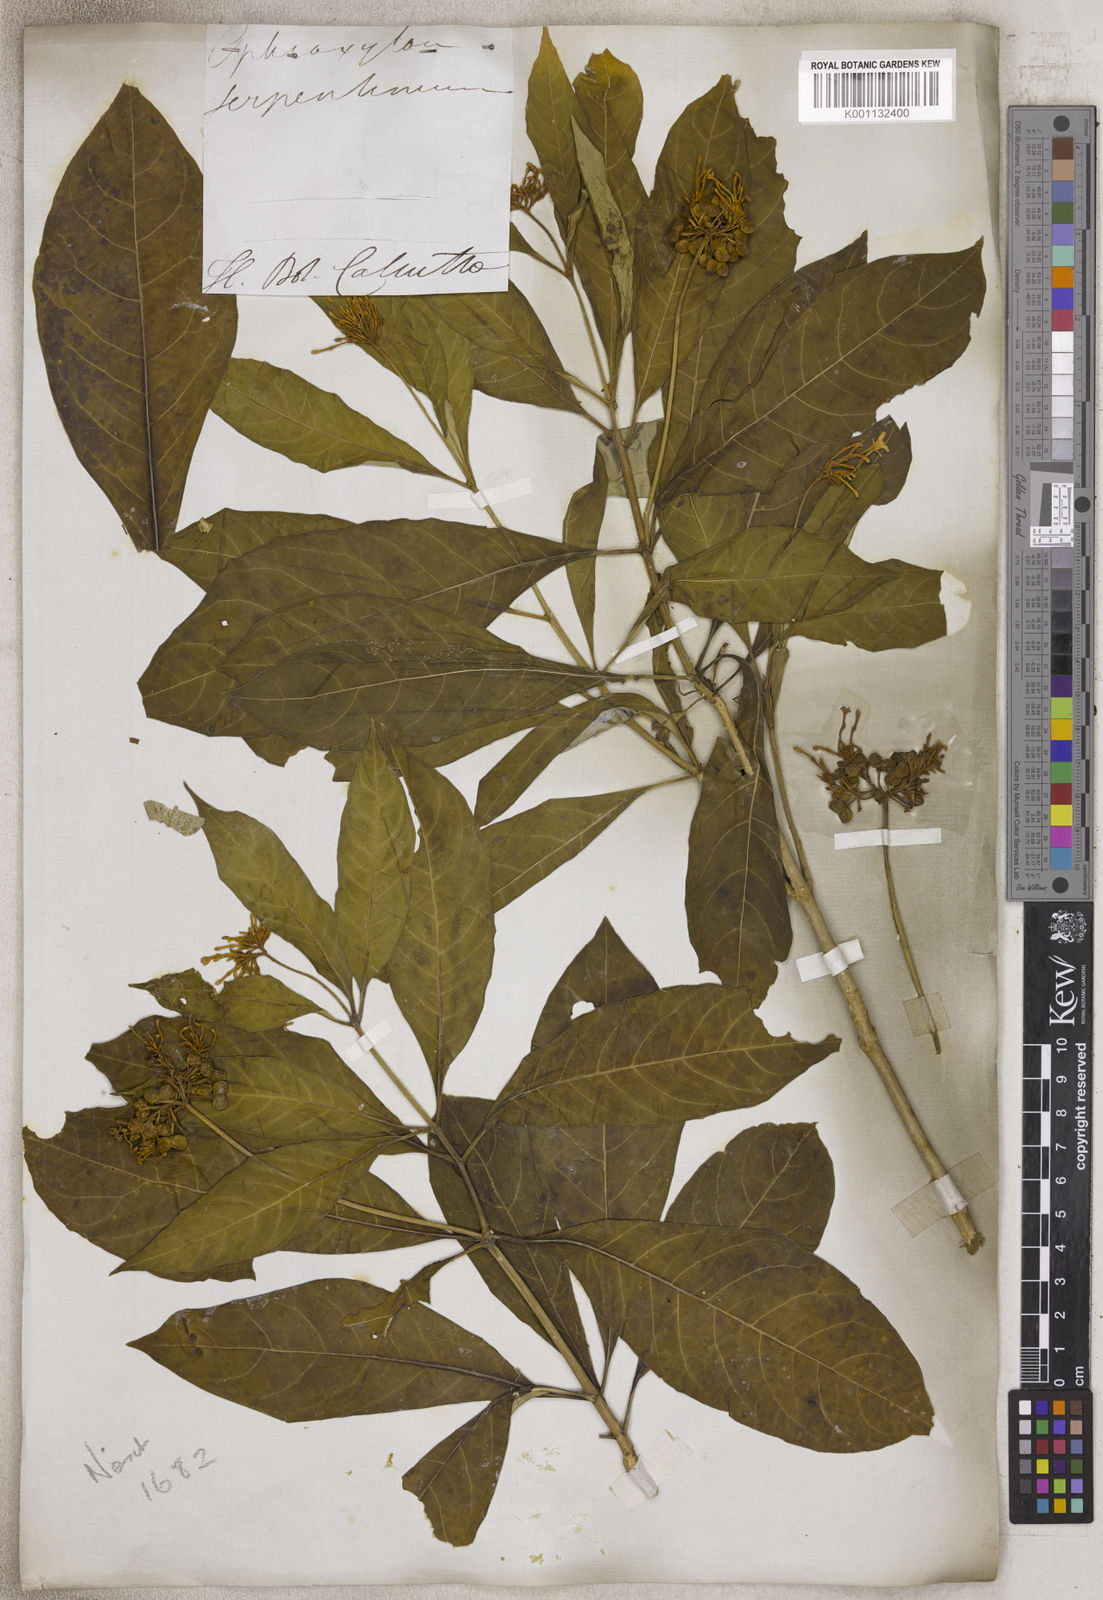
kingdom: Plantae
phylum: Tracheophyta
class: Magnoliopsida
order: Gentianales
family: Apocynaceae
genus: Rauvolfia
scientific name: Rauvolfia
